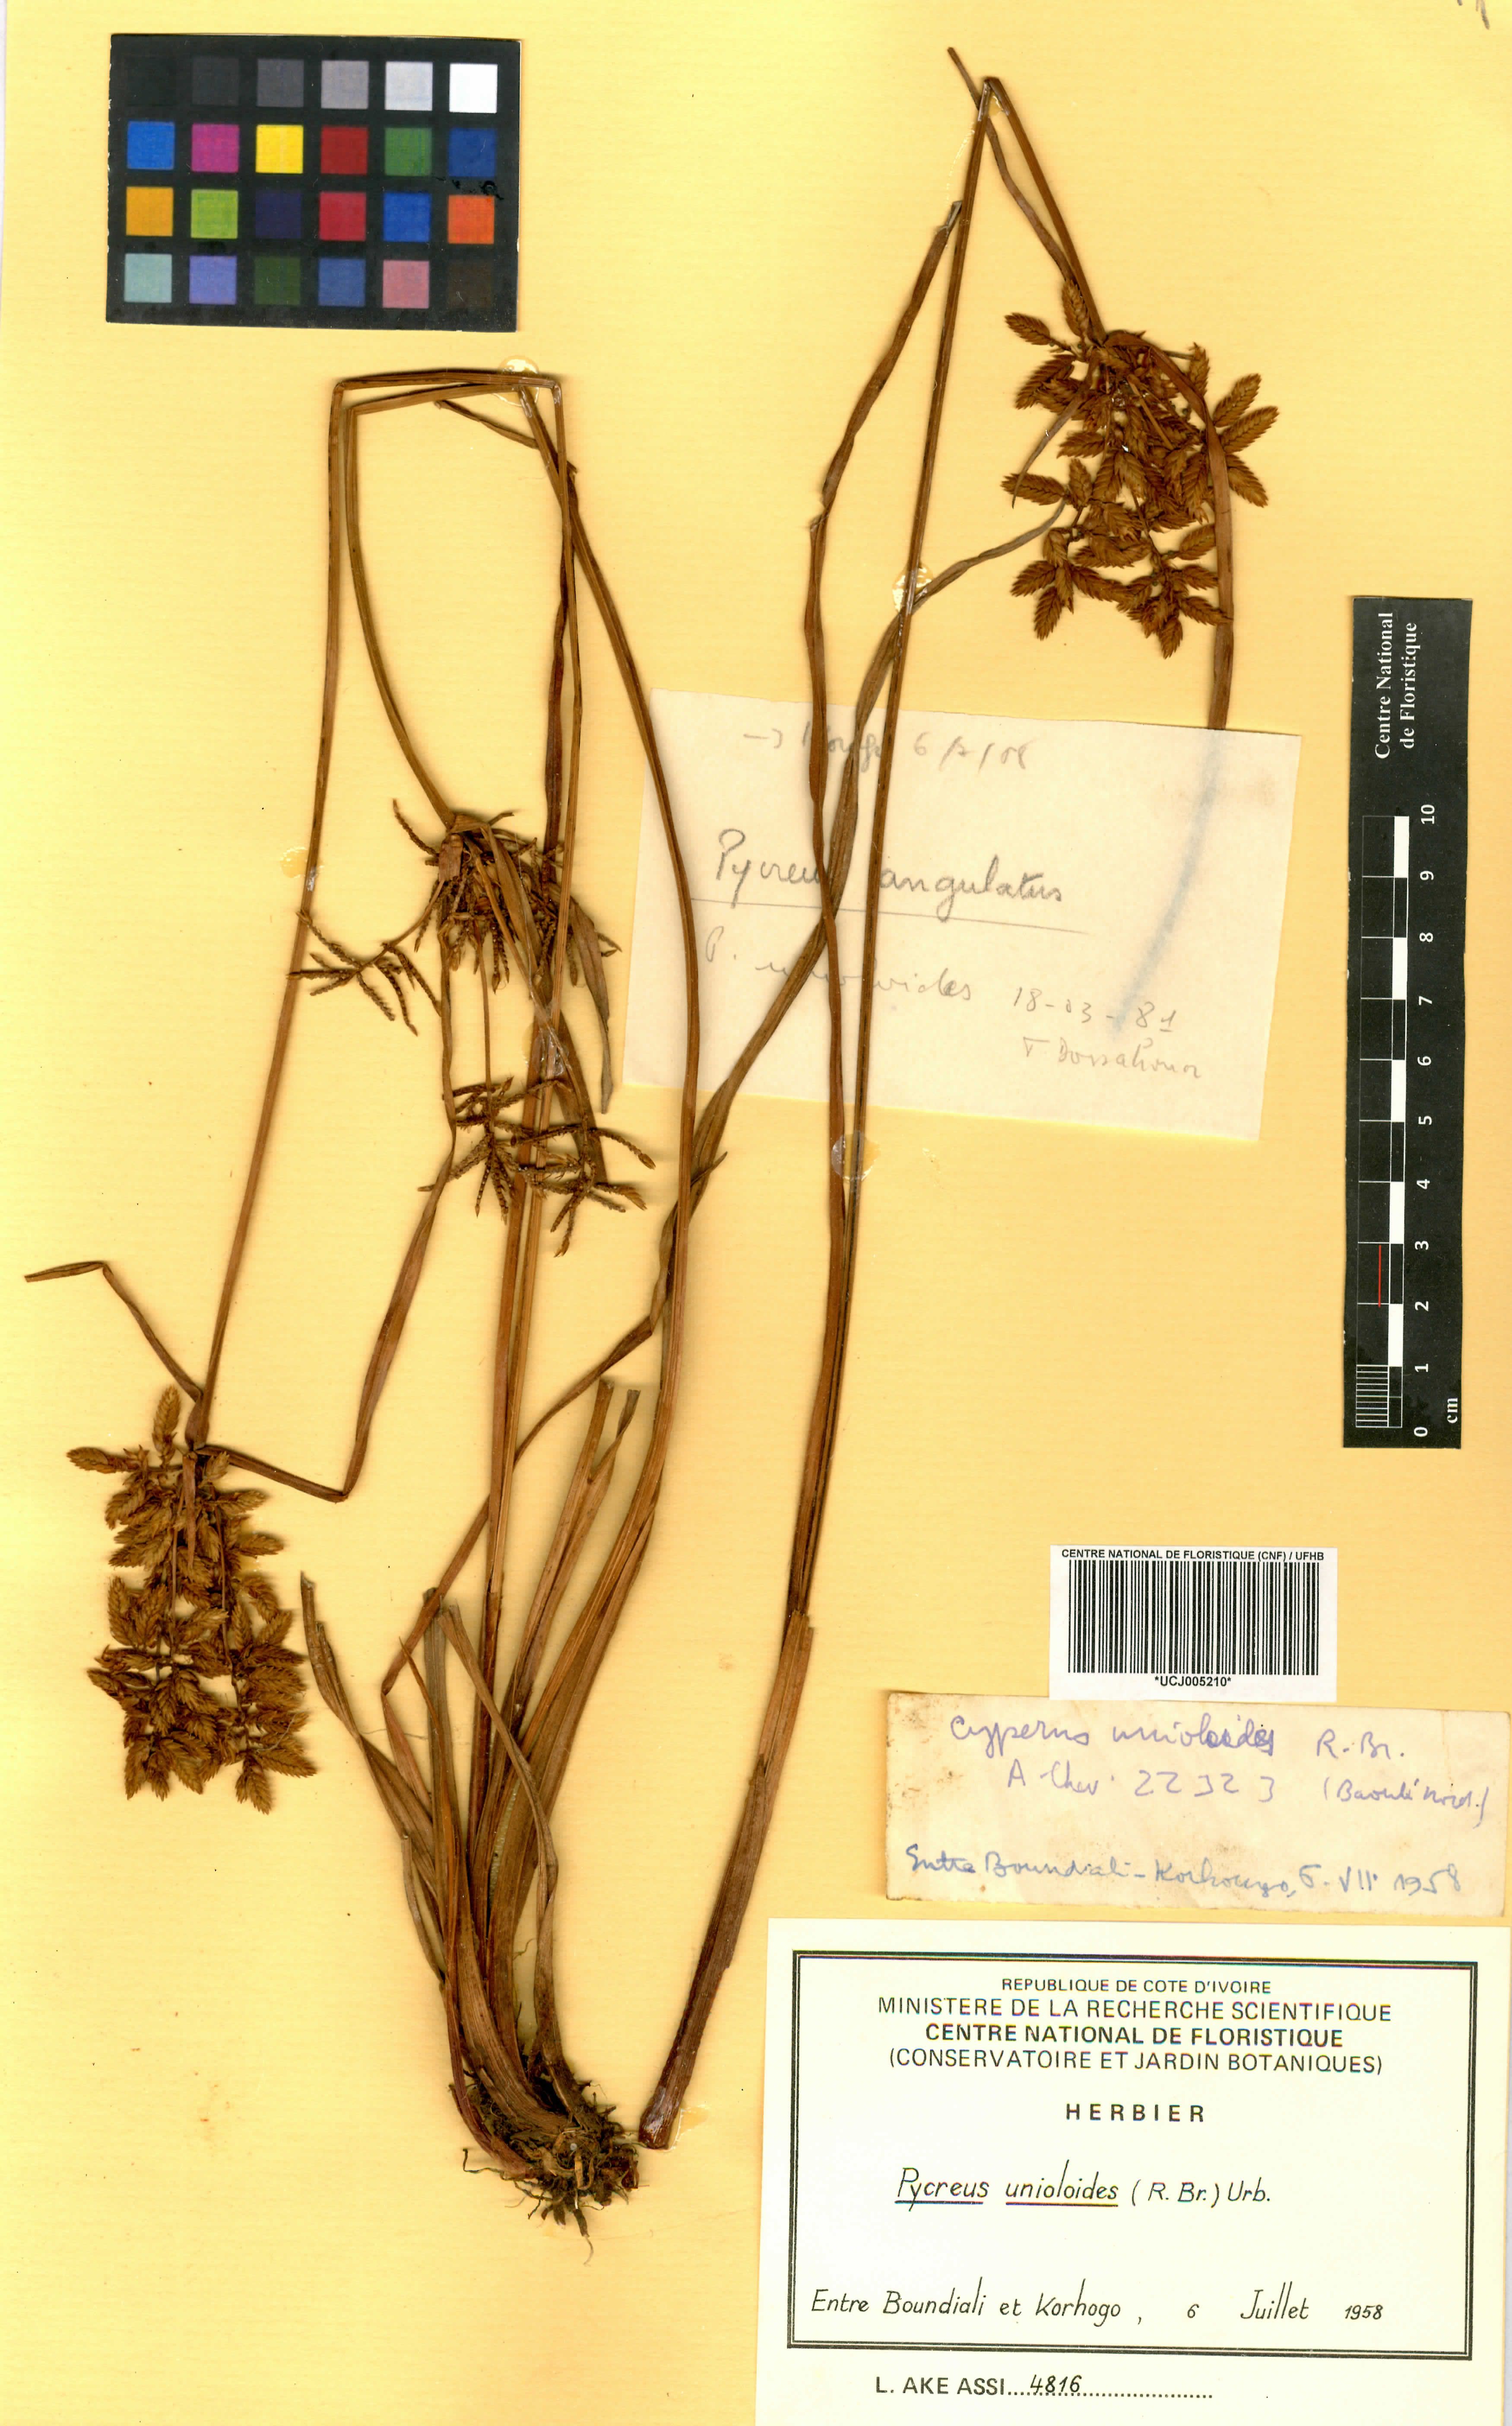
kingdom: Plantae
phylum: Tracheophyta
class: Liliopsida
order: Poales
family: Cyperaceae
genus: Cyperus
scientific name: Cyperus unioloides
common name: Uniola flatsedge
